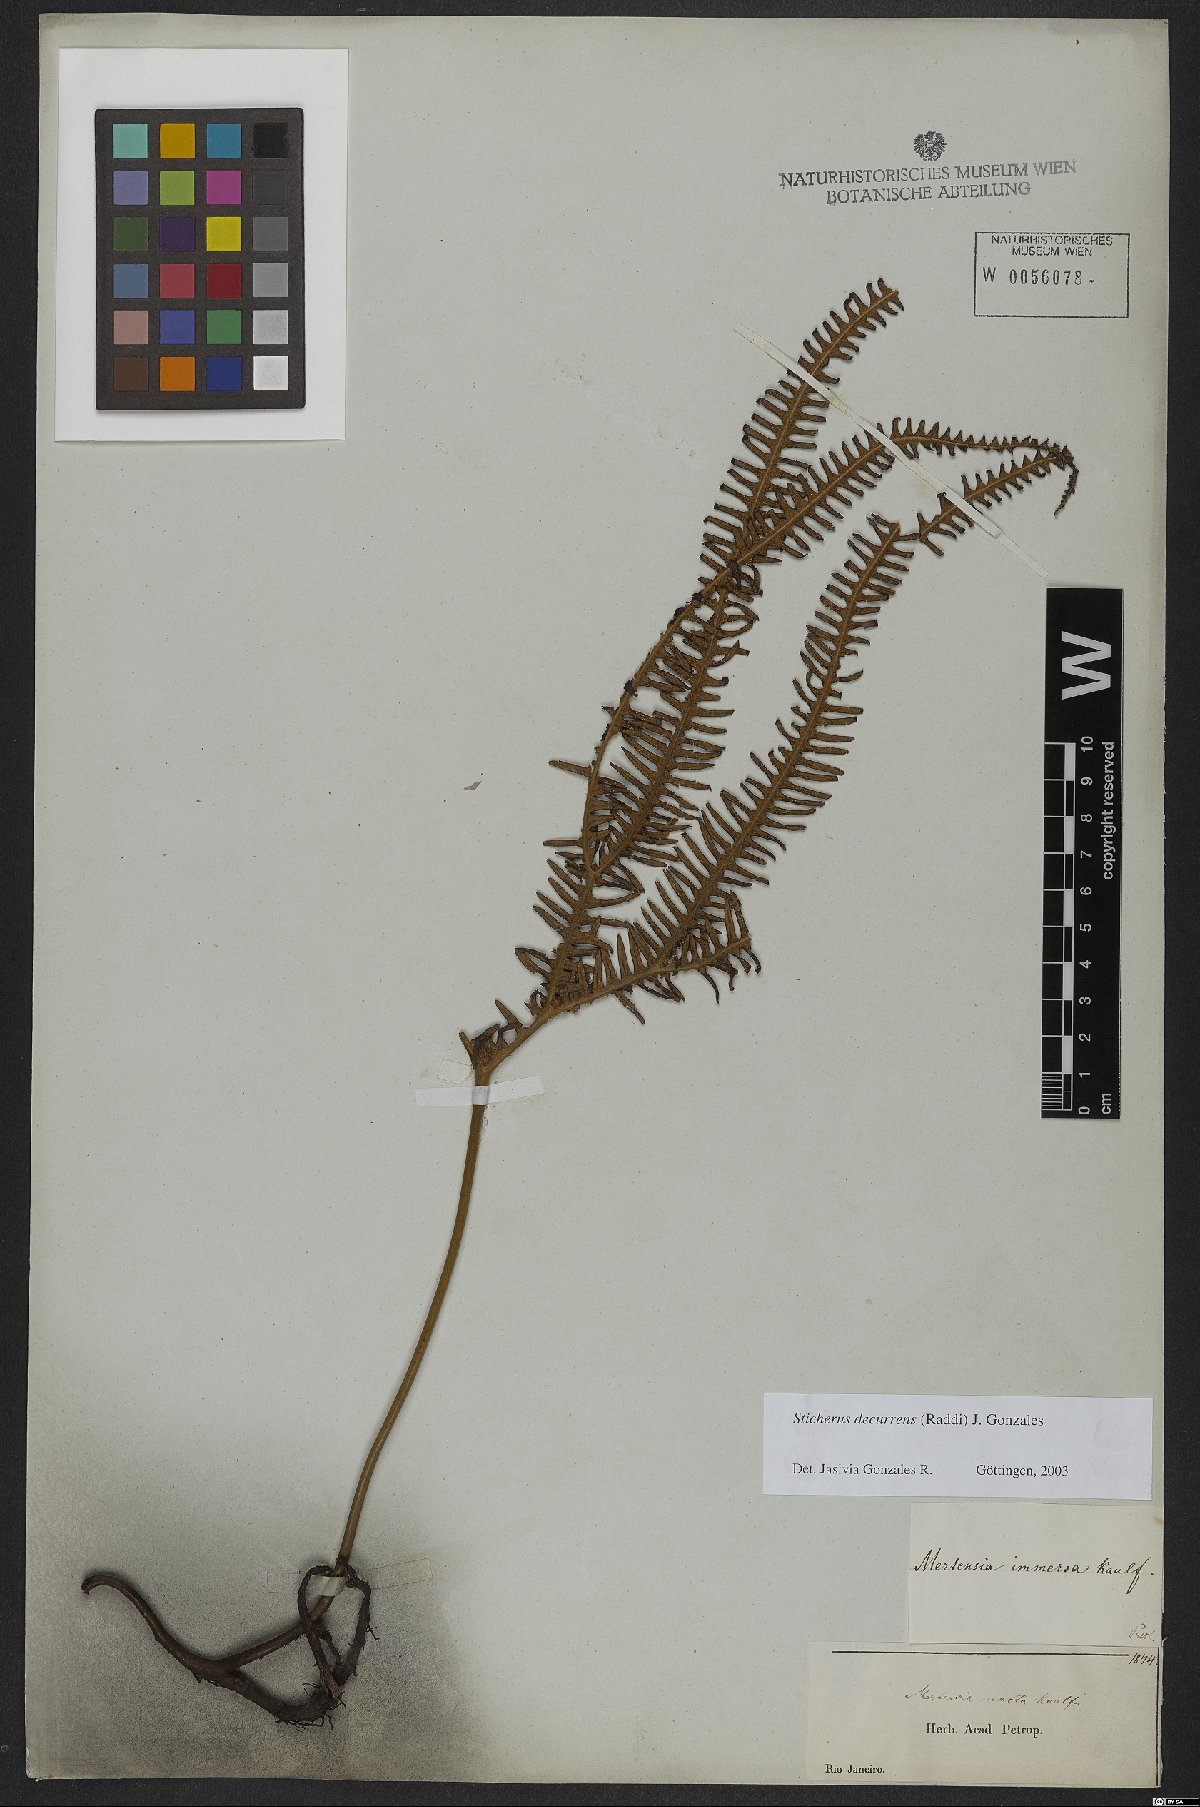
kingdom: Plantae
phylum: Tracheophyta
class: Polypodiopsida
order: Gleicheniales
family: Gleicheniaceae
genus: Sticherus
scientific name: Sticherus decurrens
